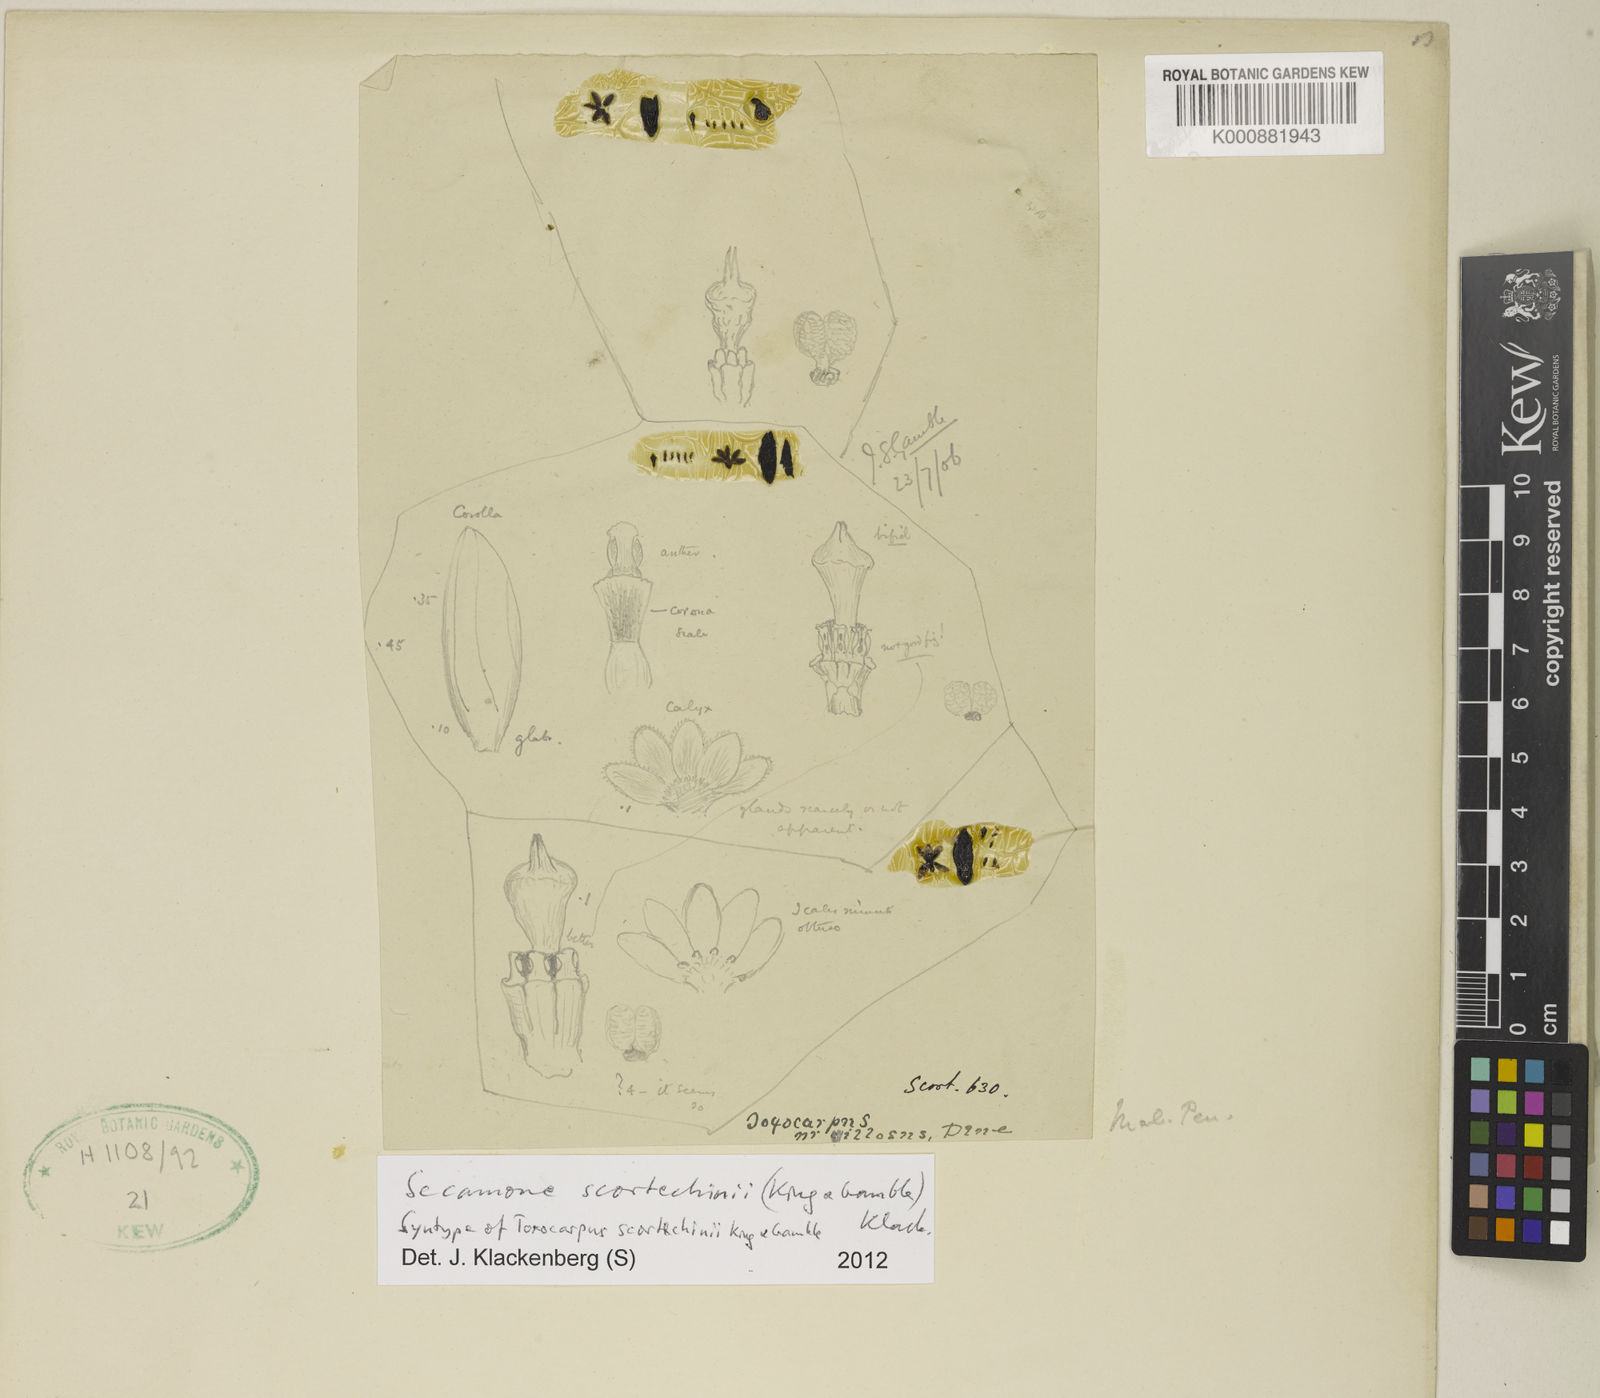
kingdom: Plantae
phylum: Tracheophyta
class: Magnoliopsida
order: Gentianales
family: Apocynaceae
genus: Secamone
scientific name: Secamone scortechinii
